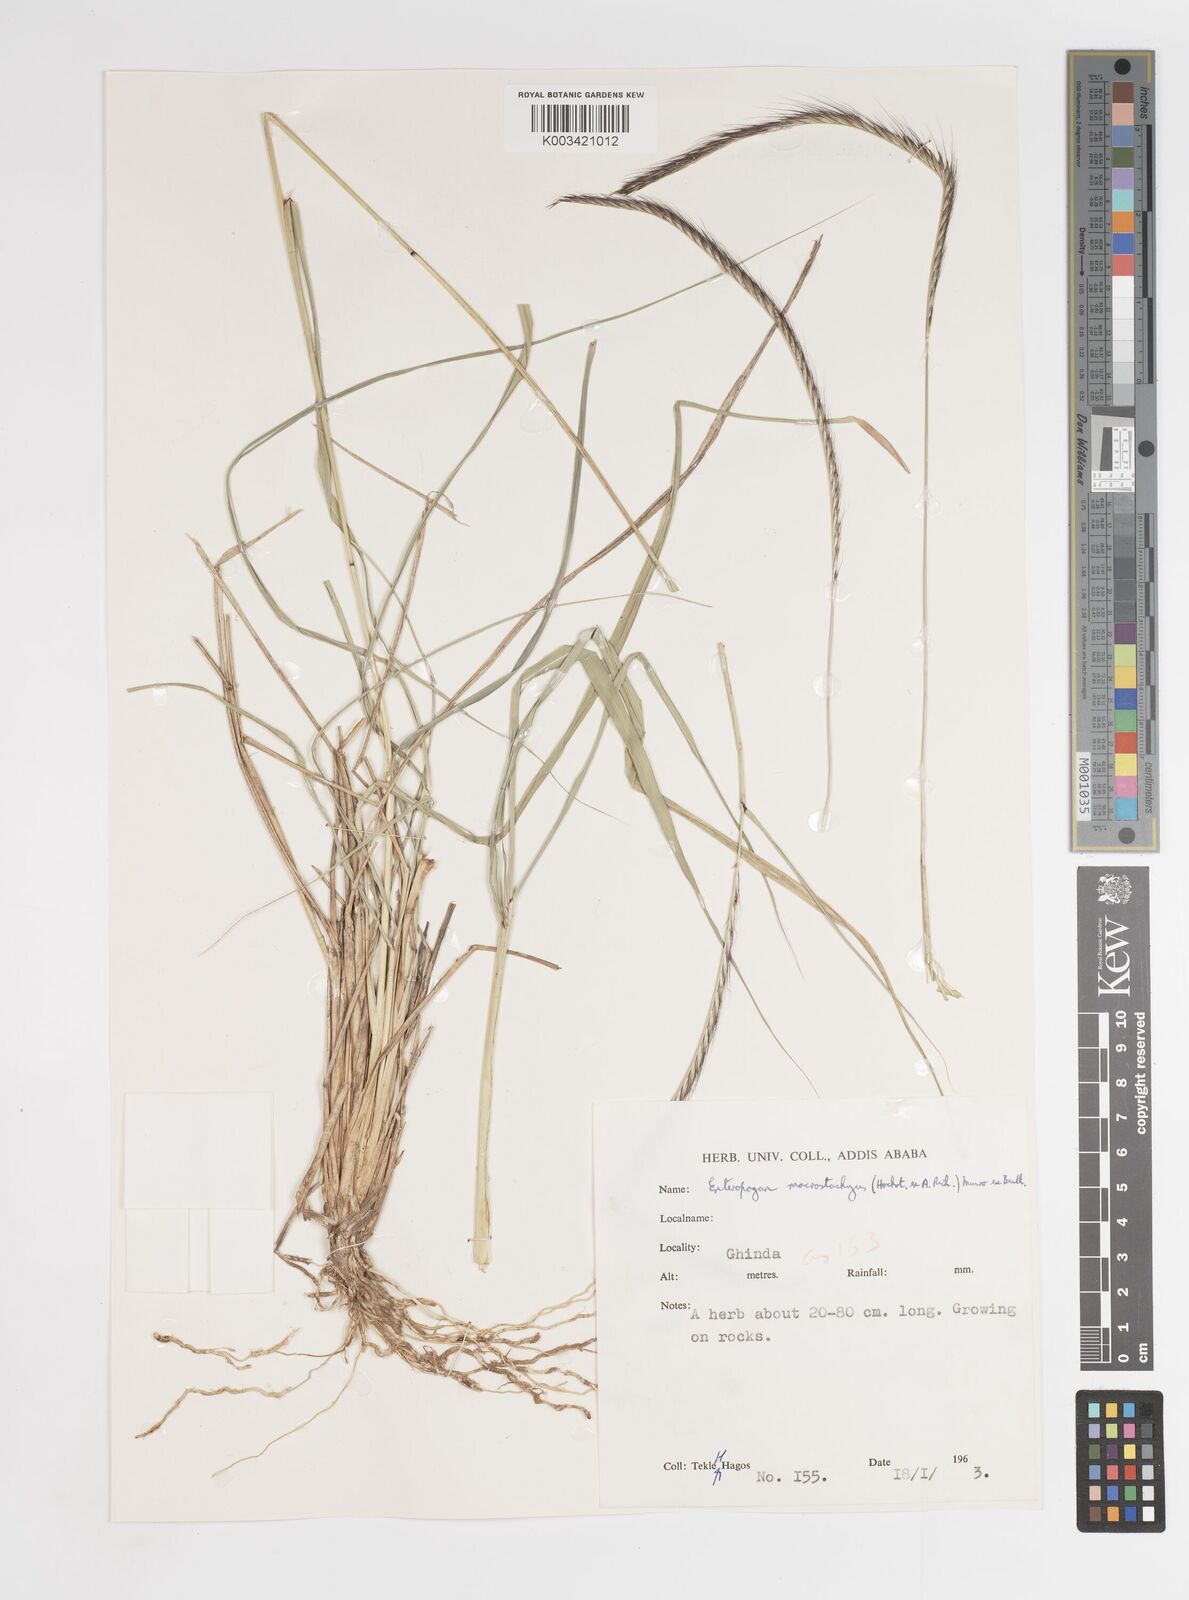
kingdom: Plantae
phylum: Tracheophyta
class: Liliopsida
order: Poales
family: Poaceae
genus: Enteropogon
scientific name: Enteropogon macrostachyus
